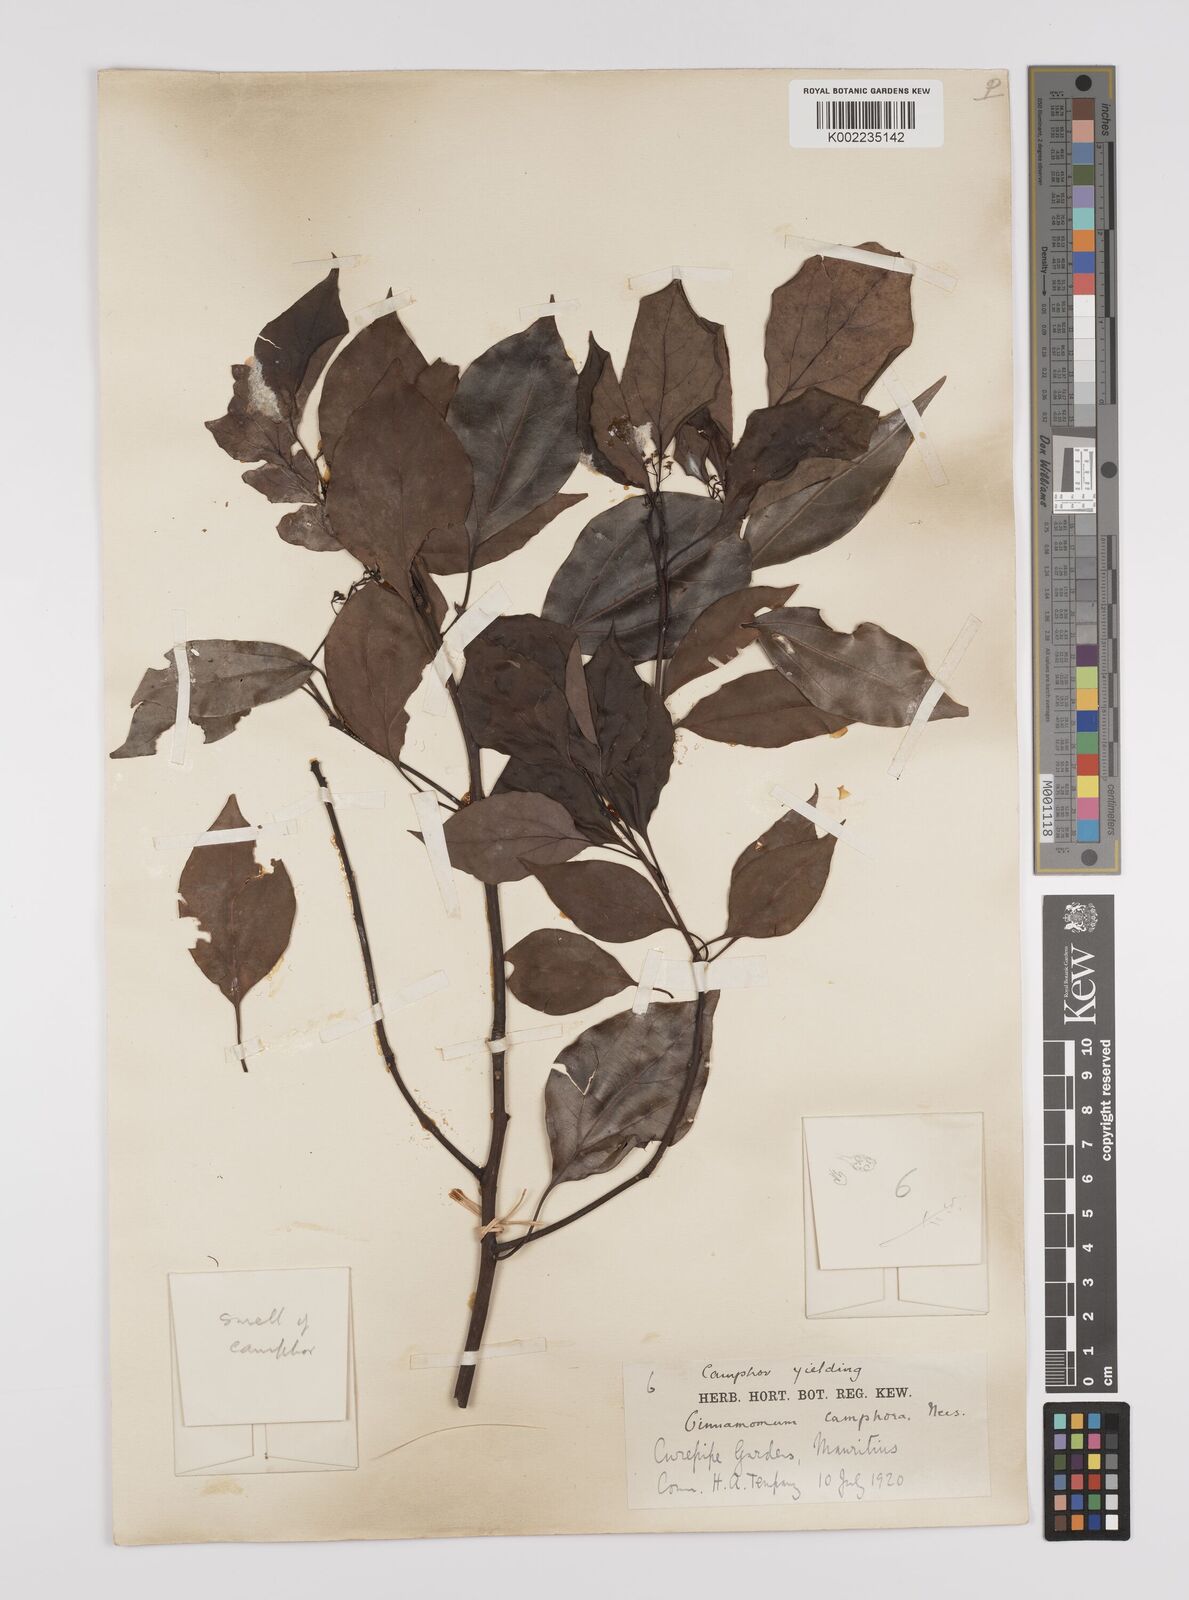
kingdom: Plantae
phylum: Tracheophyta
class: Magnoliopsida
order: Laurales
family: Lauraceae
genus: Cinnamomum
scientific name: Cinnamomum camphora
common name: Camphortree
